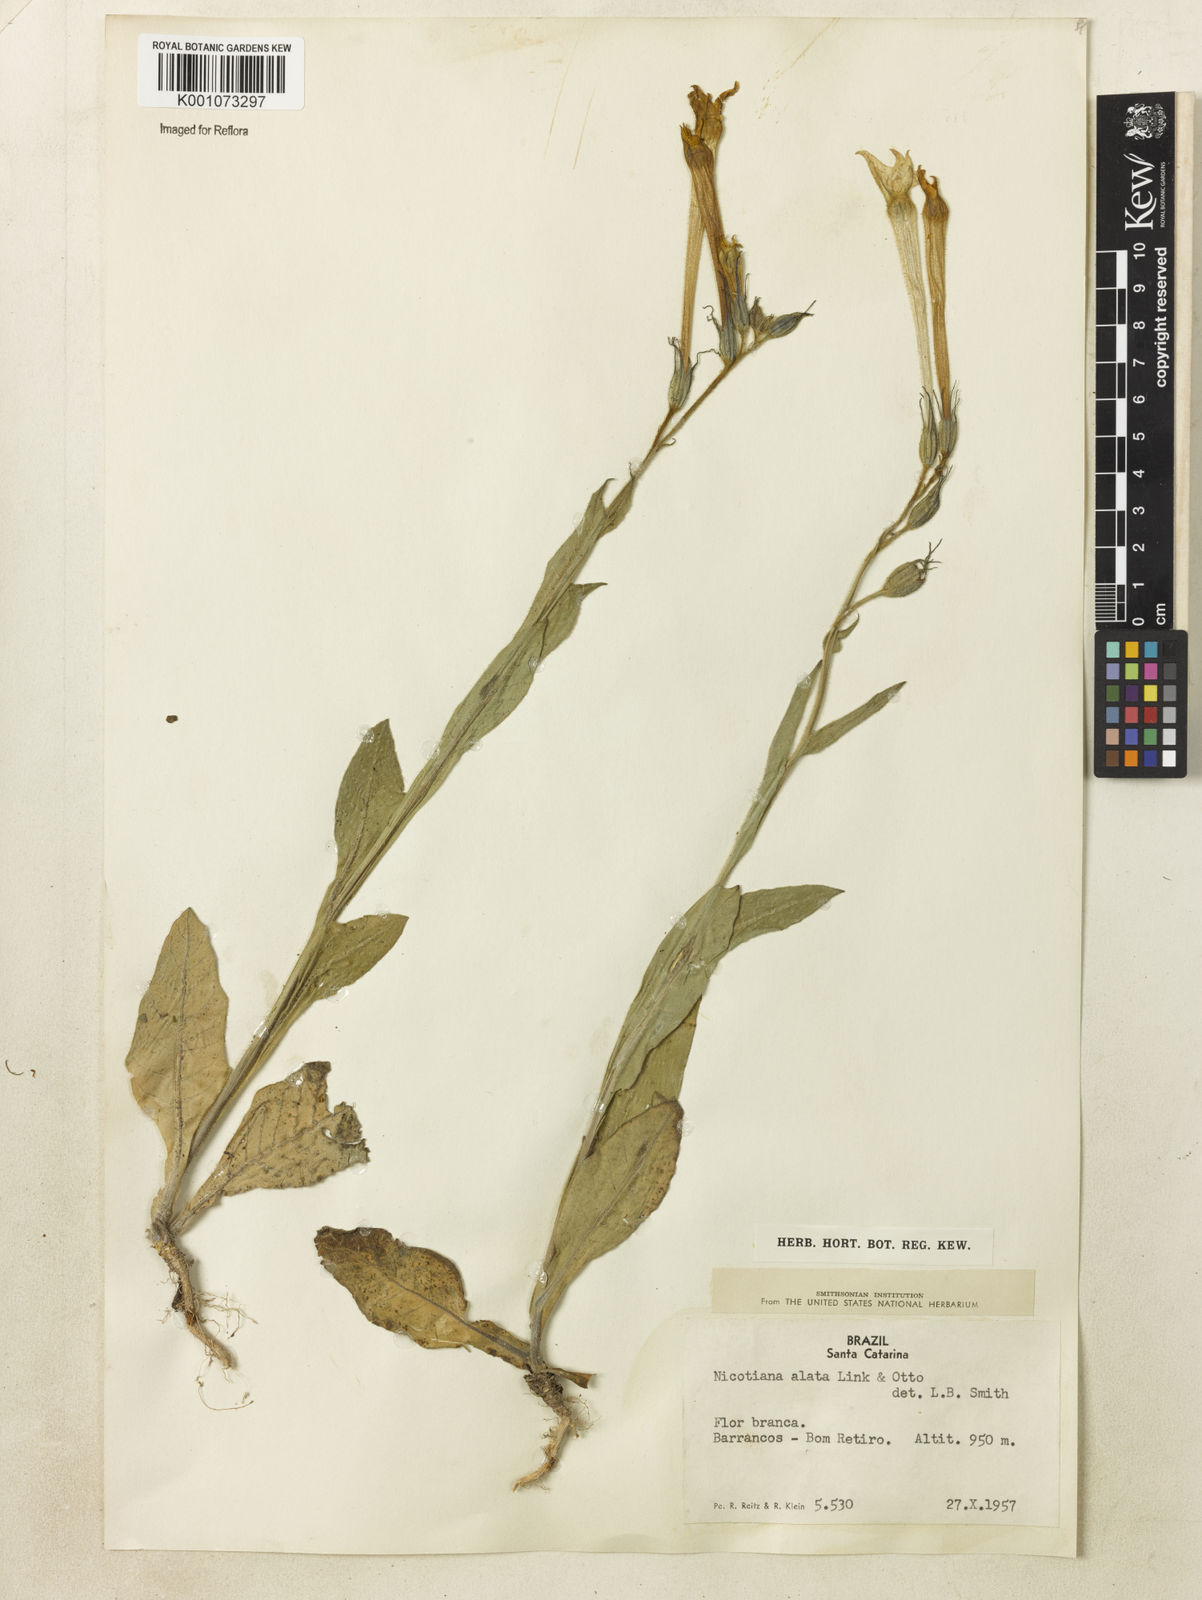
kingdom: Plantae
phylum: Tracheophyta
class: Magnoliopsida
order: Solanales
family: Solanaceae
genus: Nicotiana
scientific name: Nicotiana alata
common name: Jasmine tobacco
